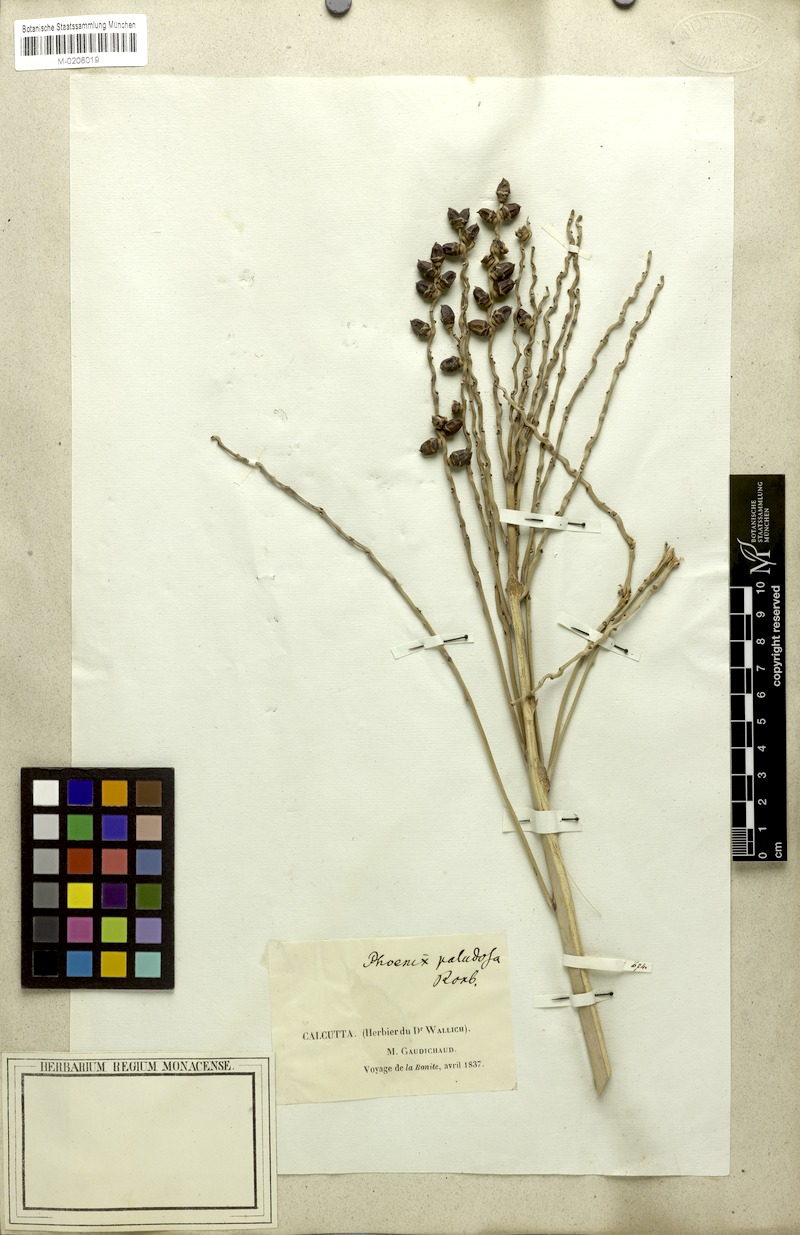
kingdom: Plantae
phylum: Tracheophyta
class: Liliopsida
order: Arecales
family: Arecaceae
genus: Phoenix
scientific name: Phoenix paludosa
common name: Mangrove date palm
